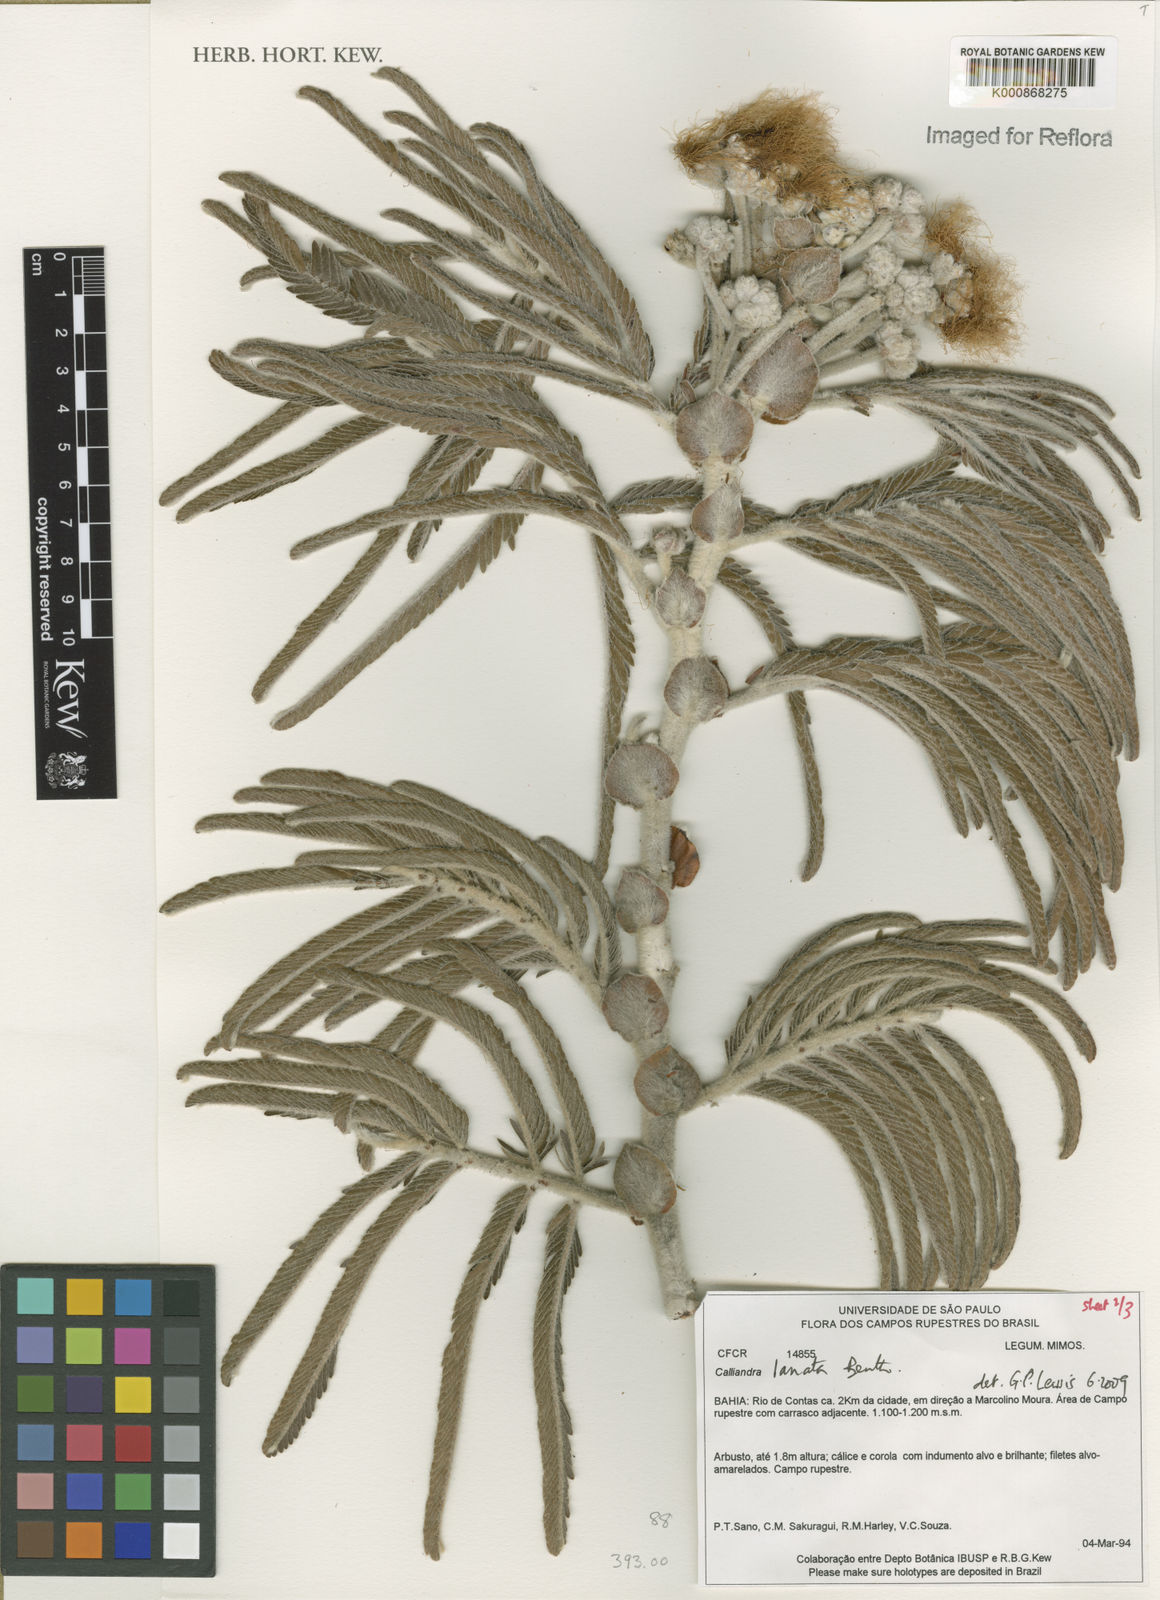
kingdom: Plantae
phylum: Tracheophyta
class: Magnoliopsida
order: Fabales
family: Fabaceae
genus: Calliandra
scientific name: Calliandra lanata
